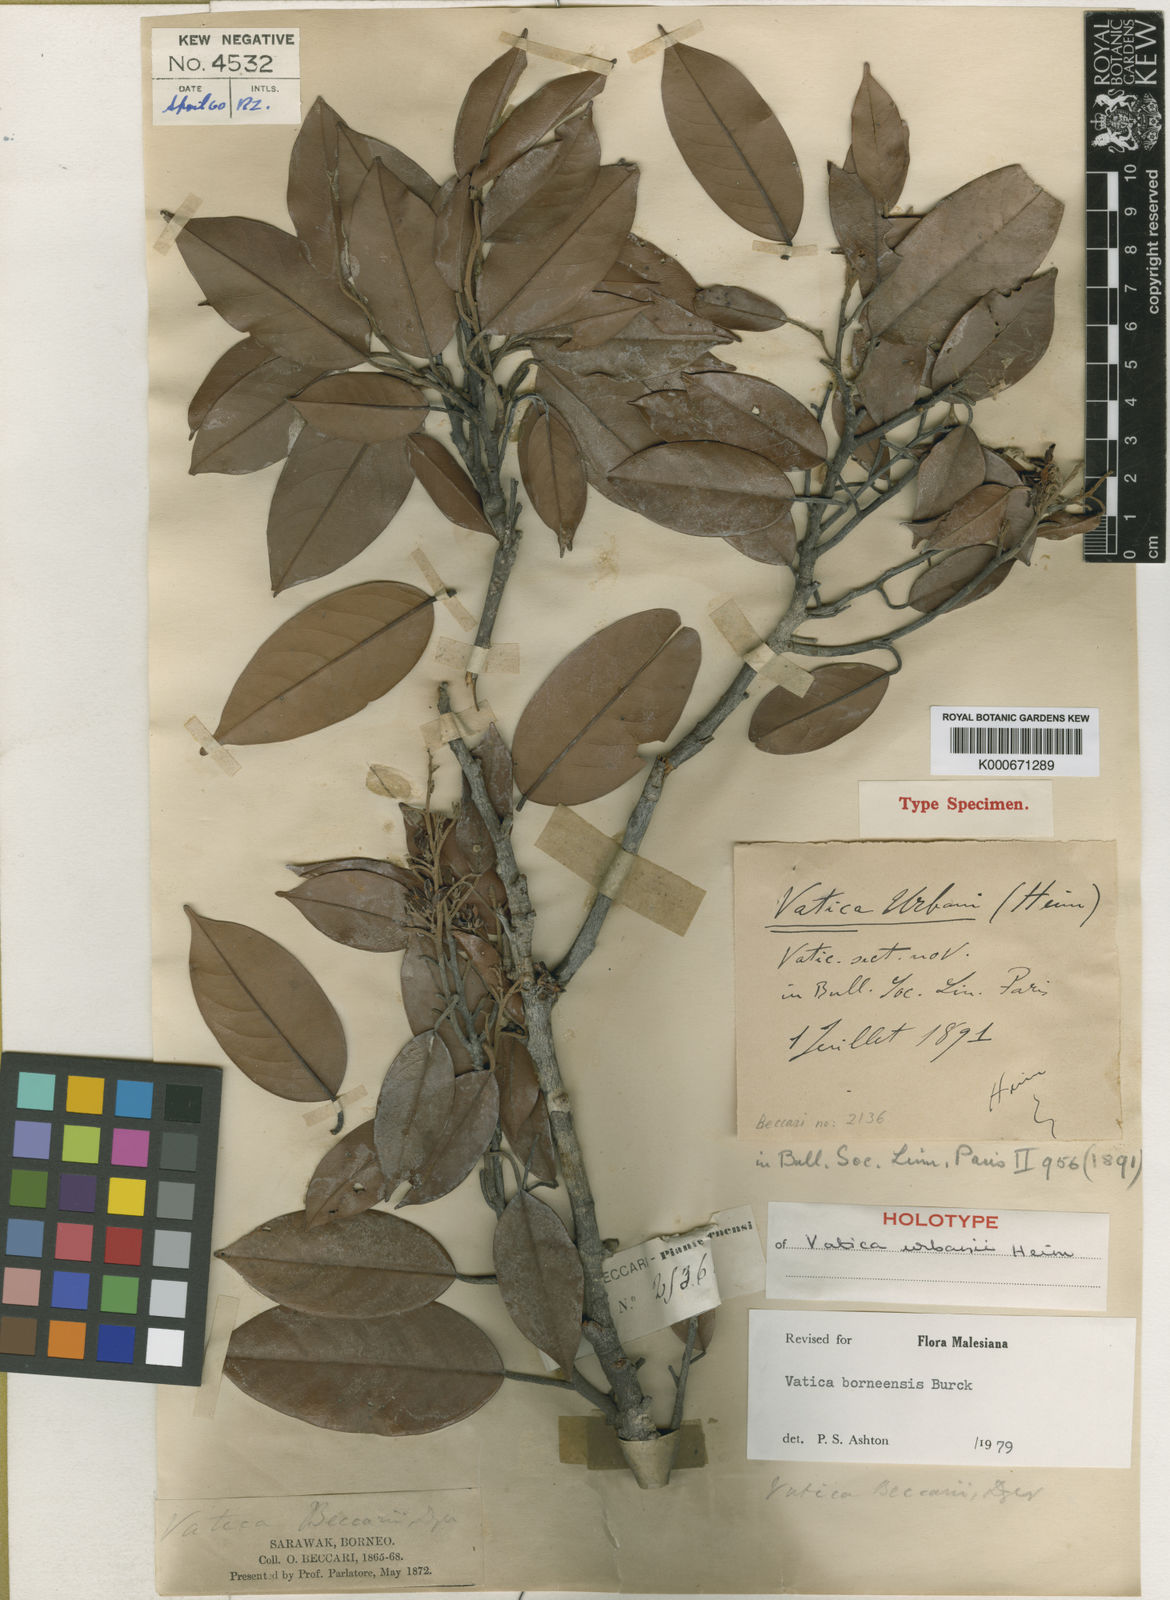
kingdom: Plantae
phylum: Tracheophyta
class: Magnoliopsida
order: Malvales
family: Dipterocarpaceae
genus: Vatica
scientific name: Vatica borneensis
